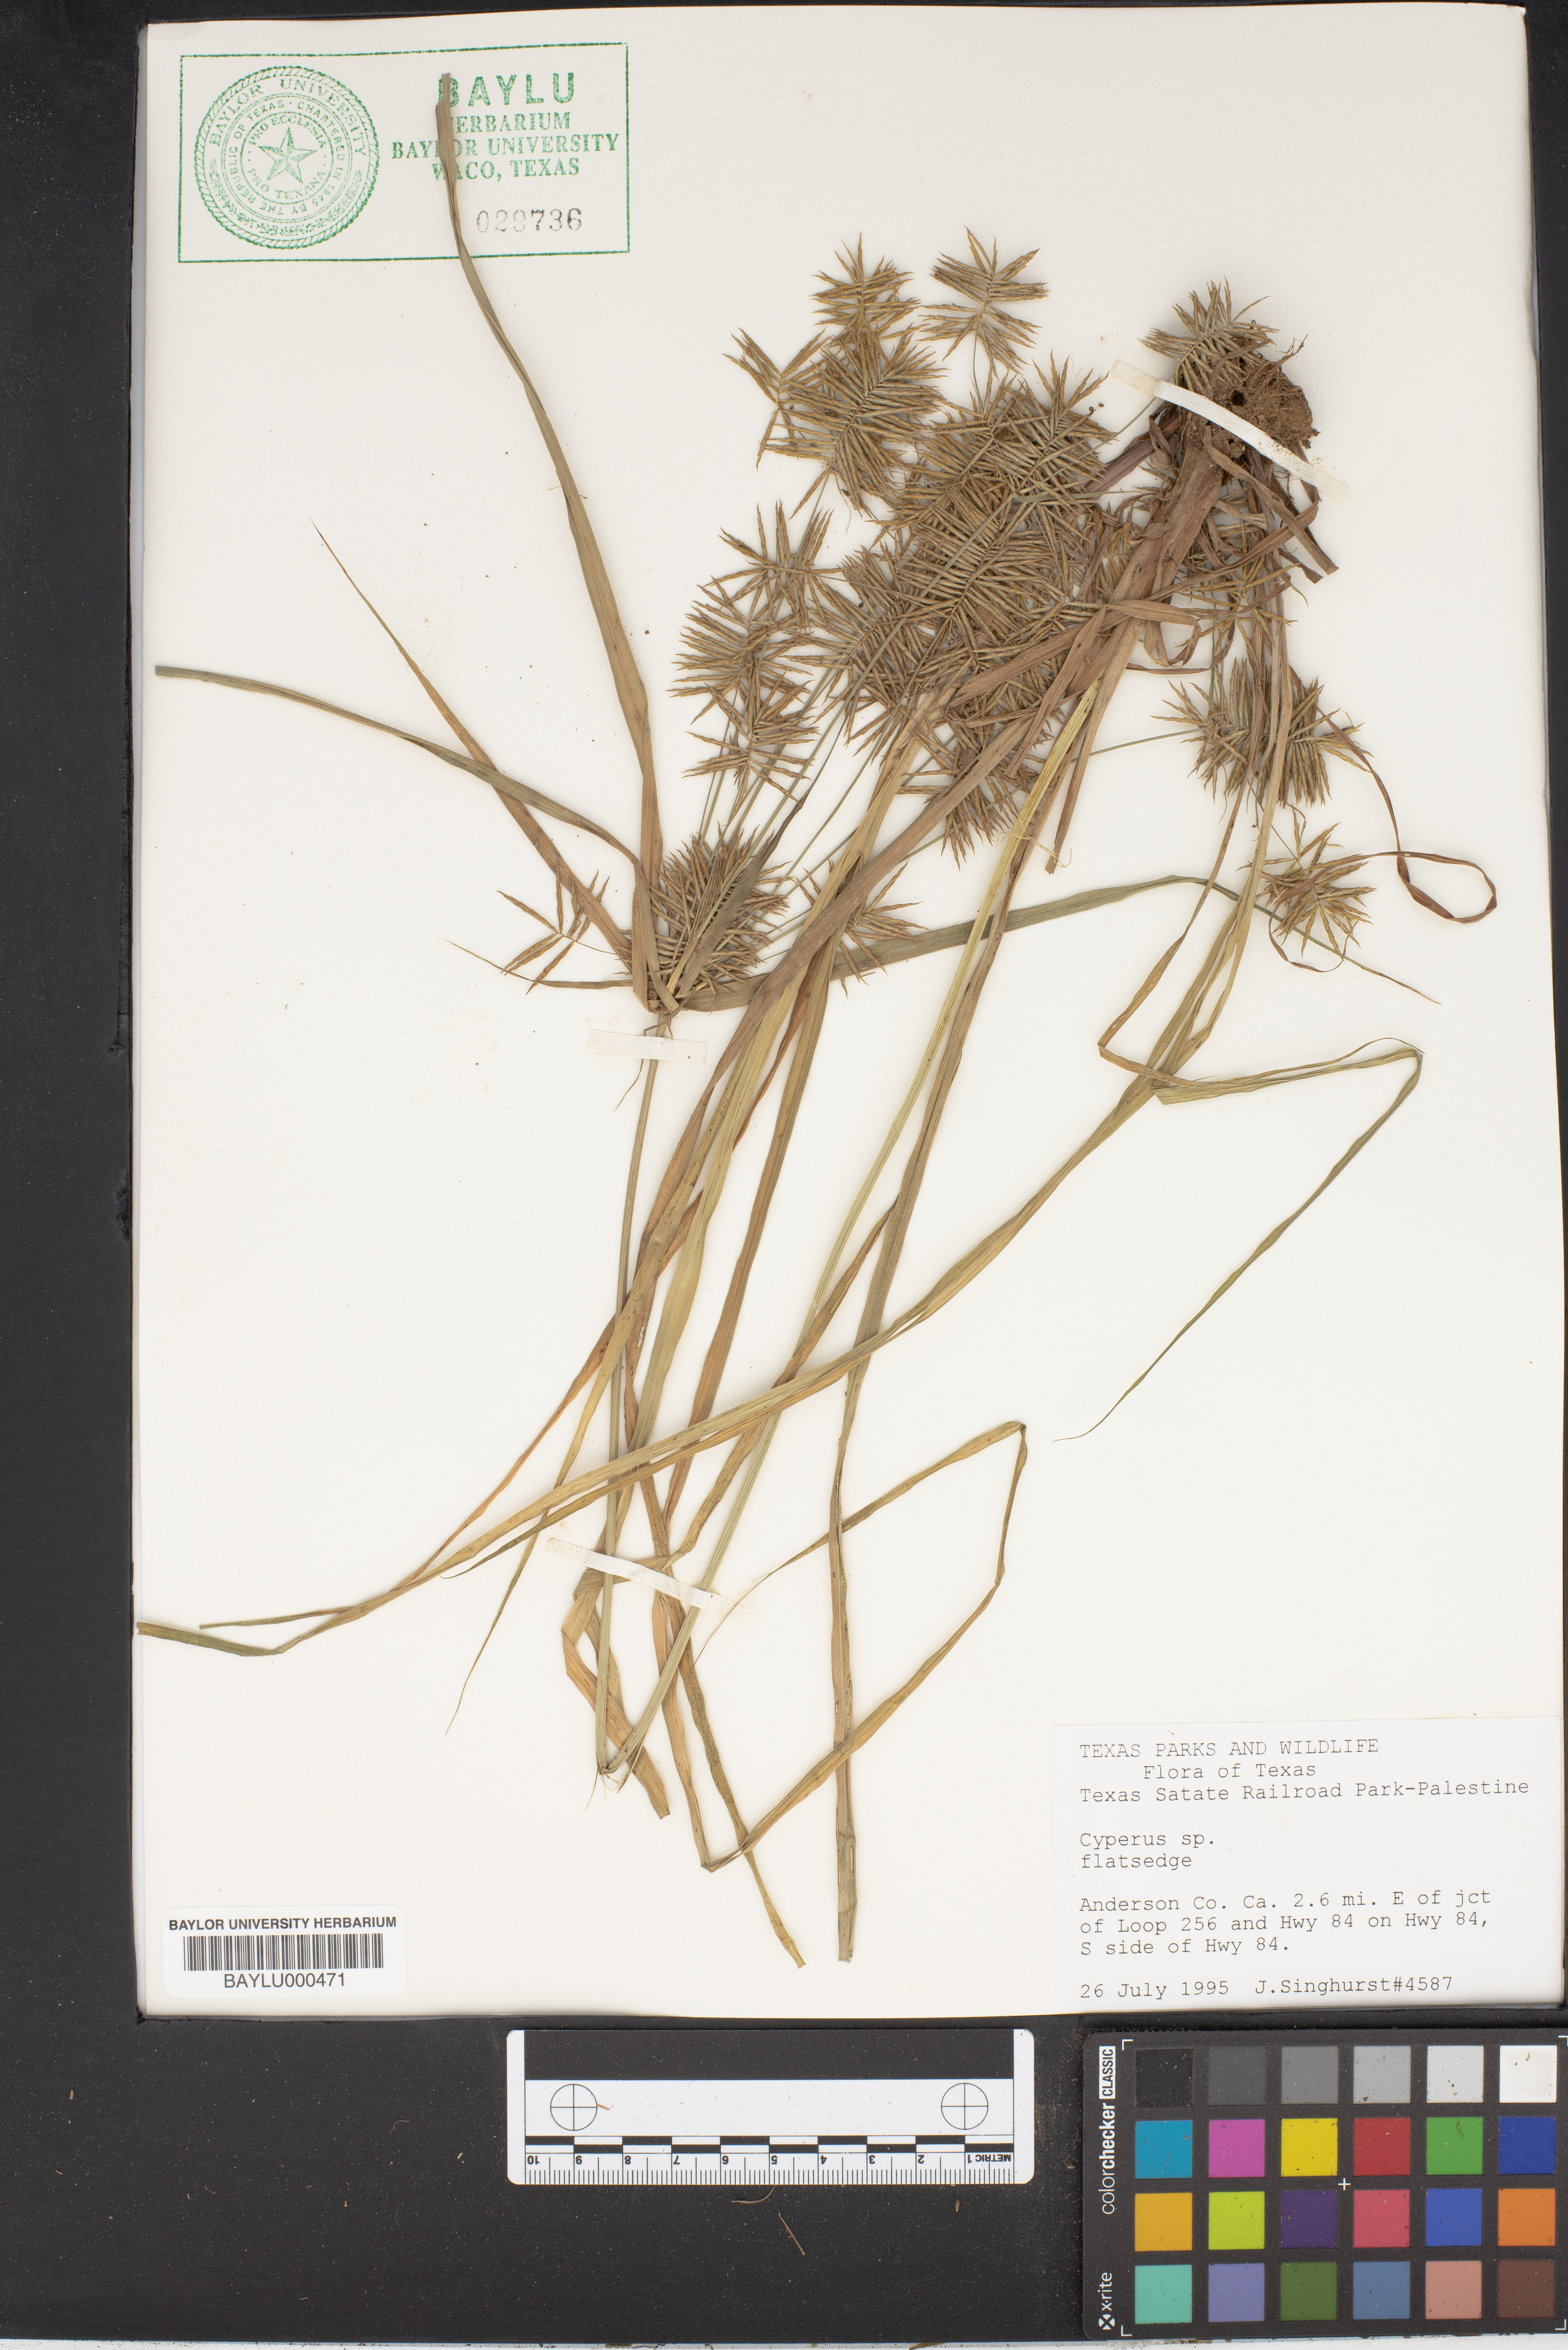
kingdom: Plantae
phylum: Tracheophyta
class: Liliopsida
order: Poales
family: Cyperaceae
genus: Cyperus
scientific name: Cyperus
